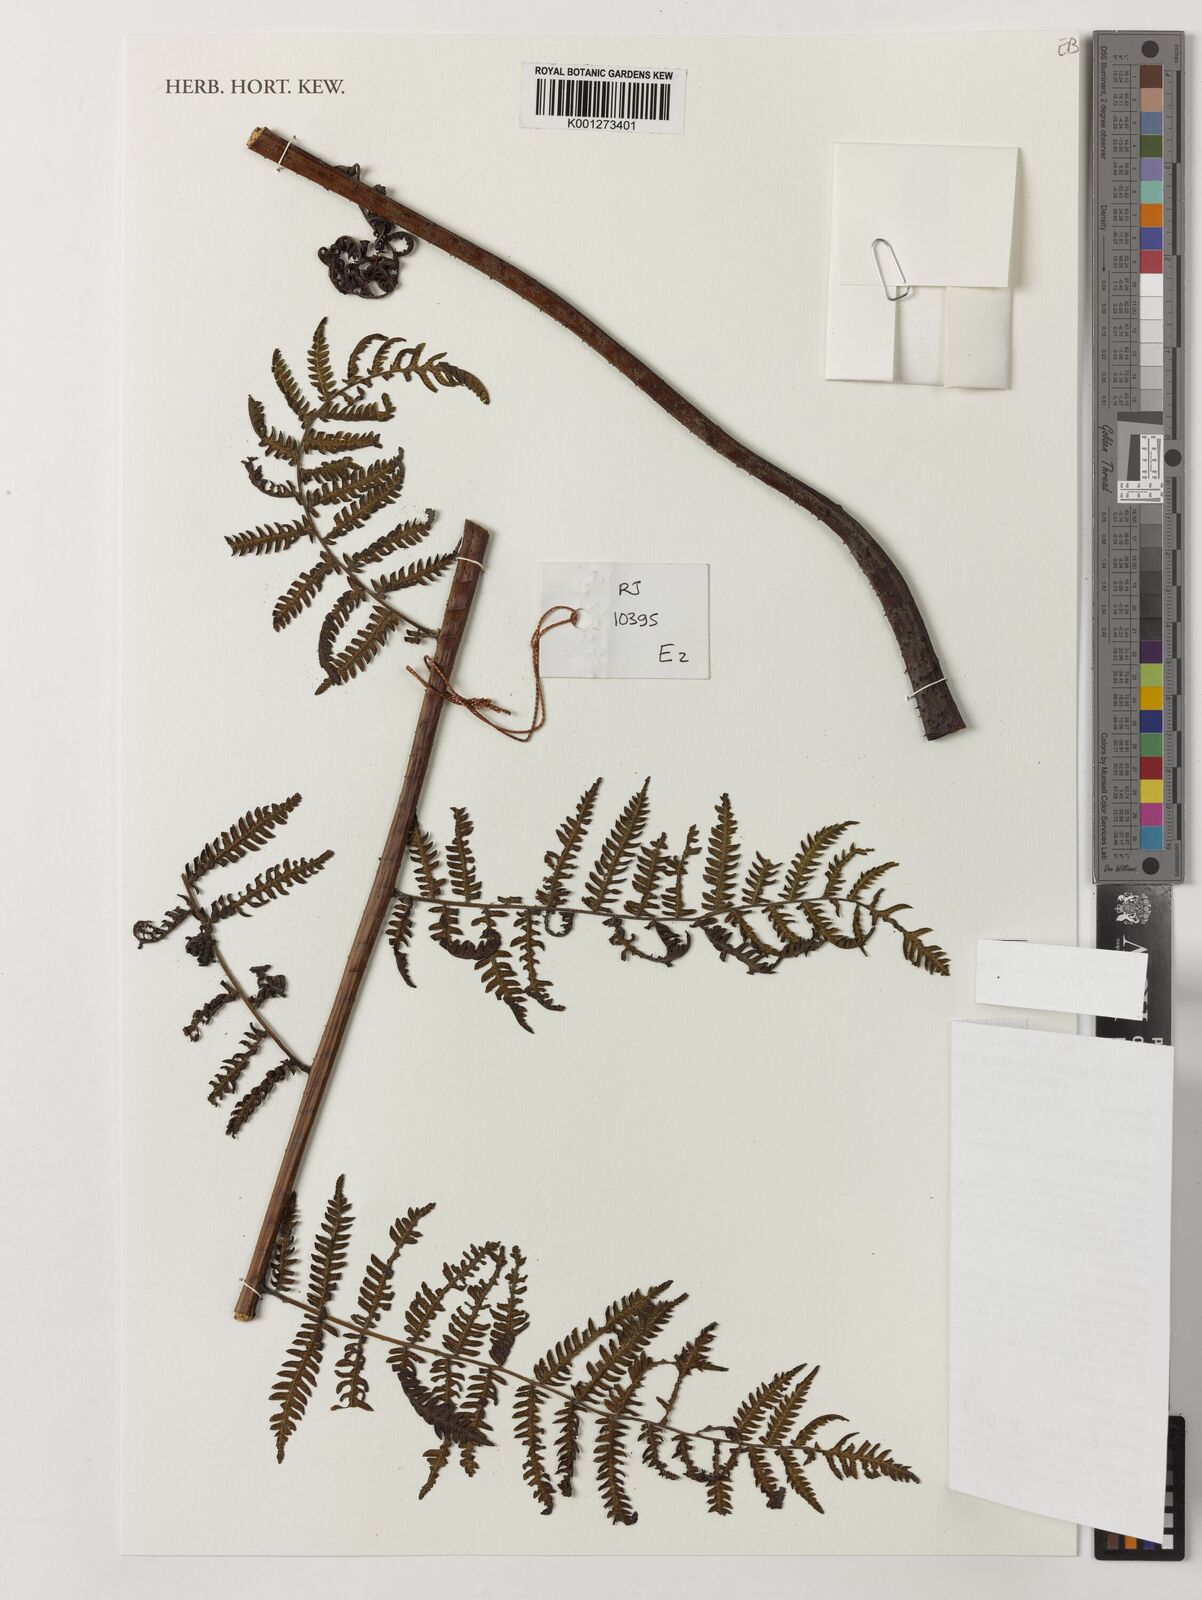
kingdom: Plantae
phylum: Tracheophyta
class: Polypodiopsida
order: Cyatheales
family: Cyatheaceae
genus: Alsophila
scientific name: Alsophila gregaria
